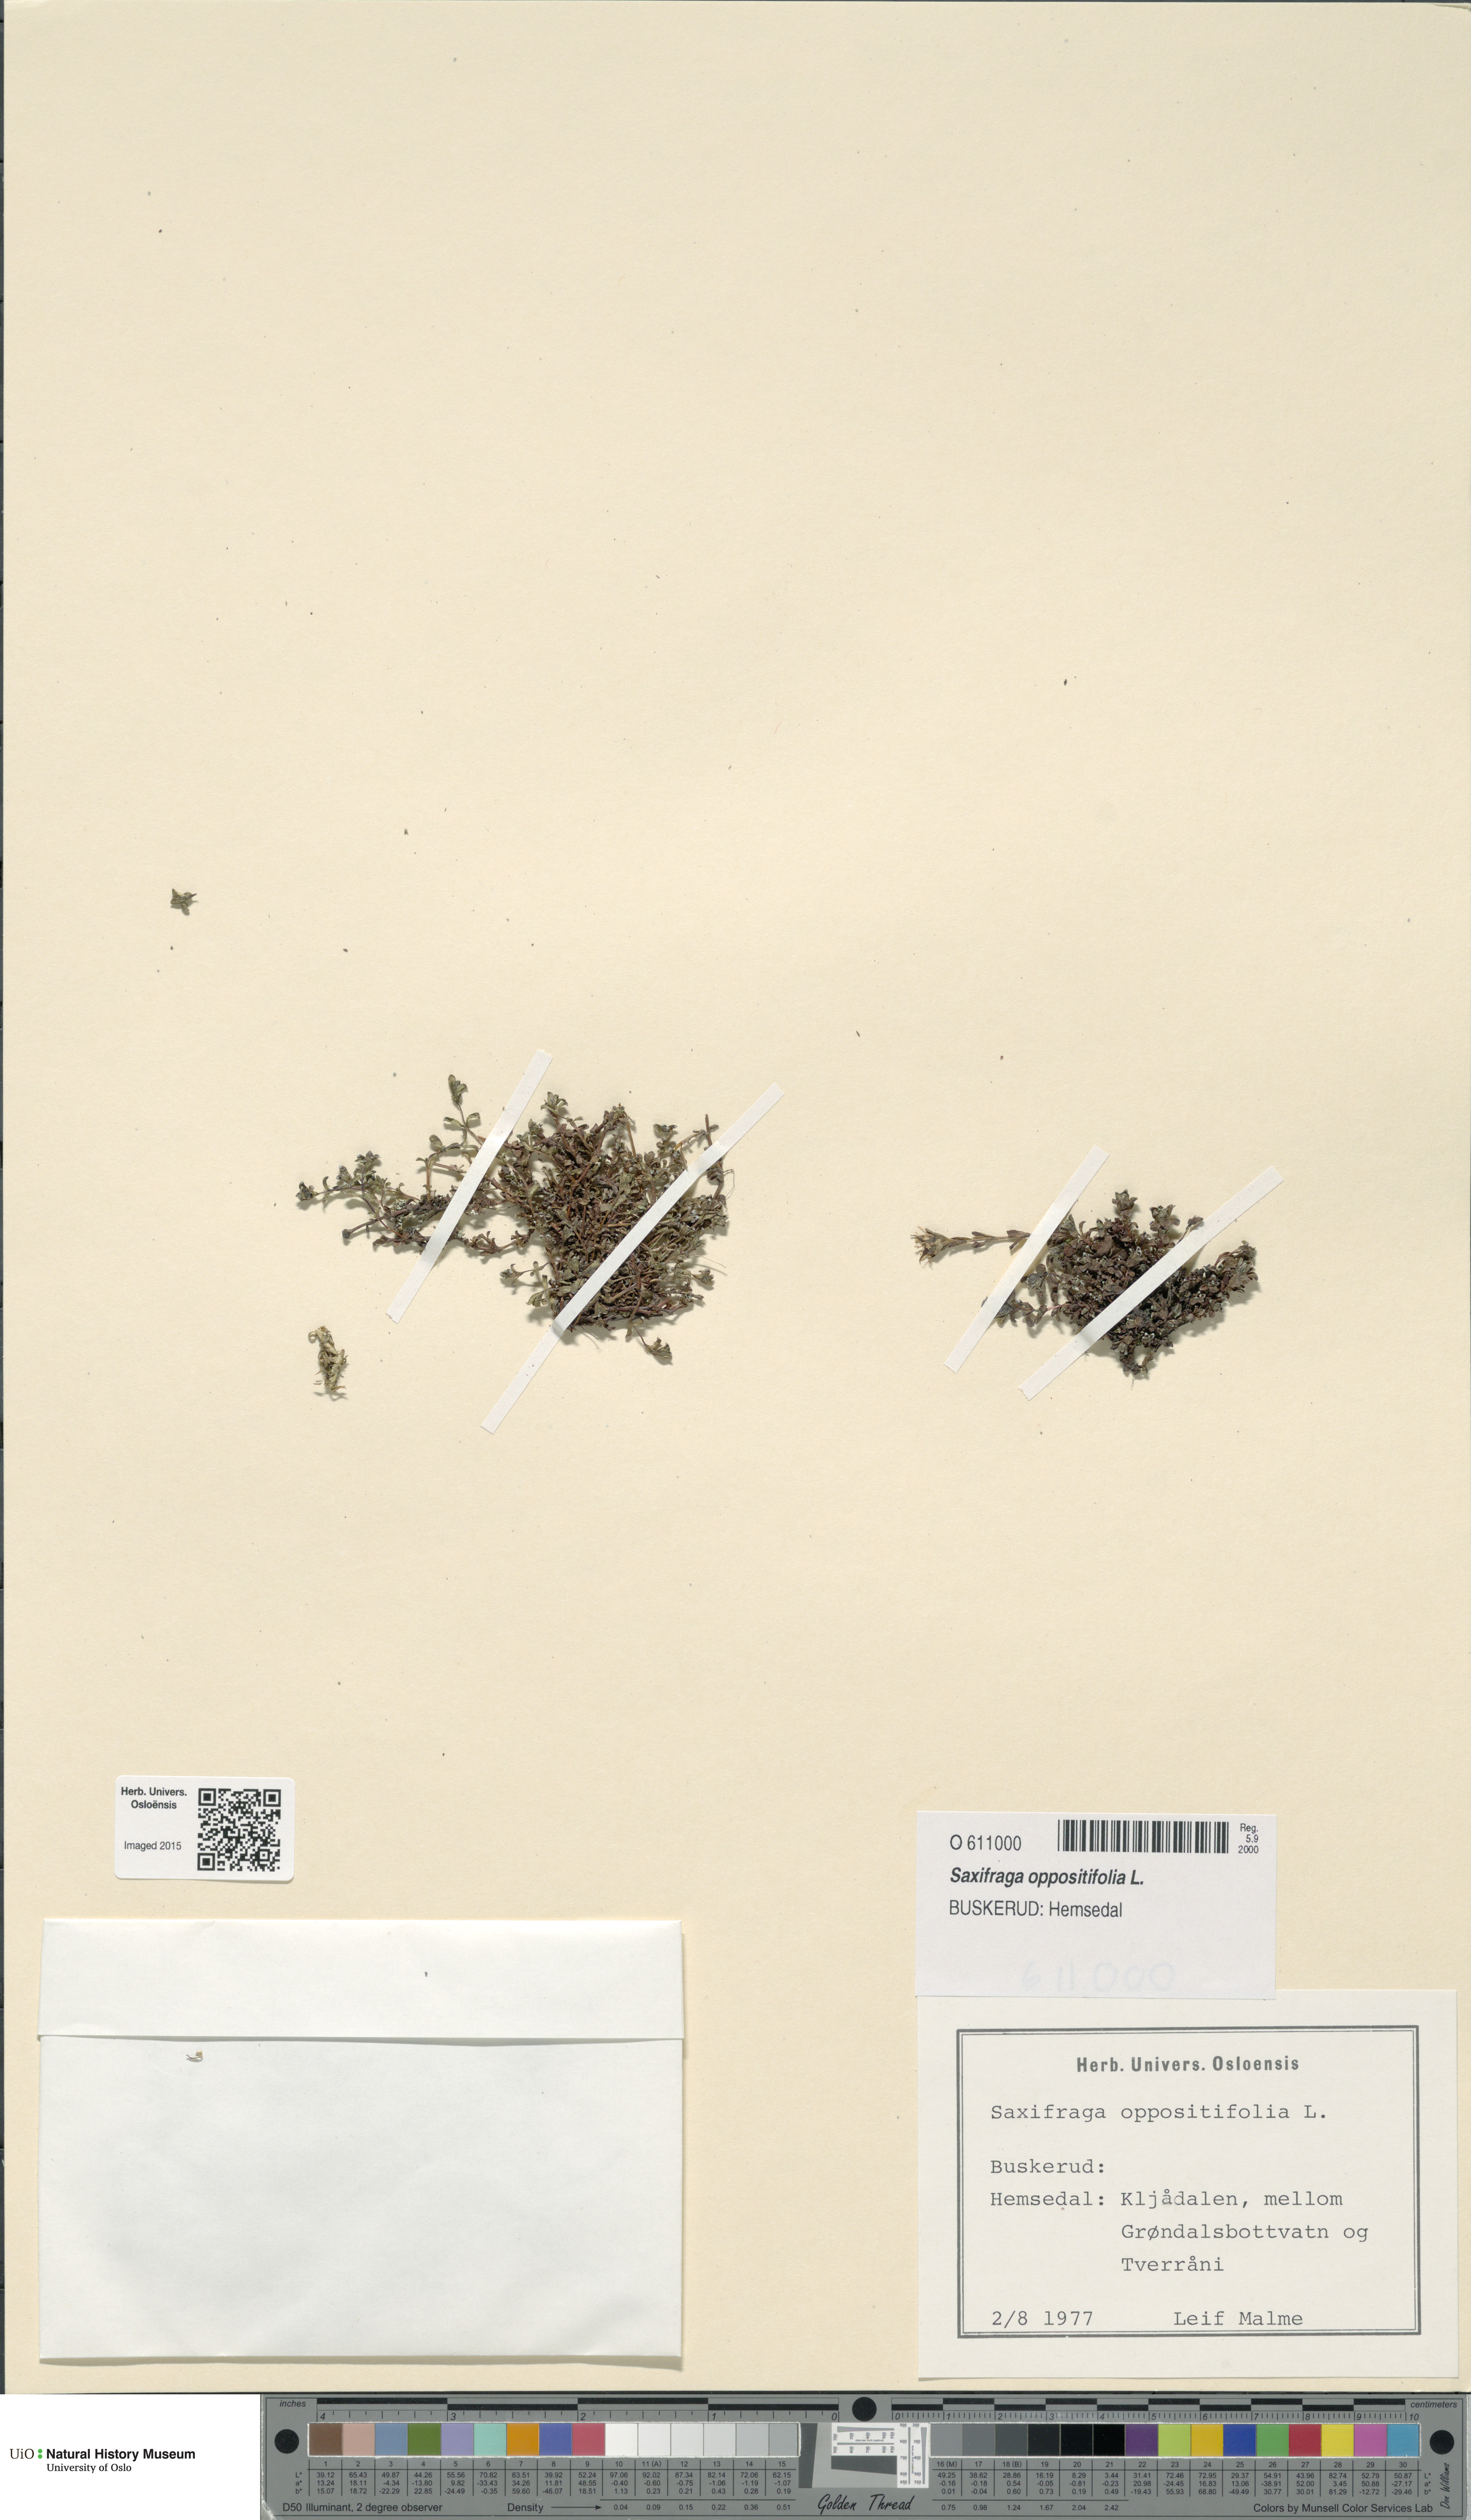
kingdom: Plantae
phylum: Tracheophyta
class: Magnoliopsida
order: Saxifragales
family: Saxifragaceae
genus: Saxifraga
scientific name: Saxifraga oppositifolia
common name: Purple saxifrage
